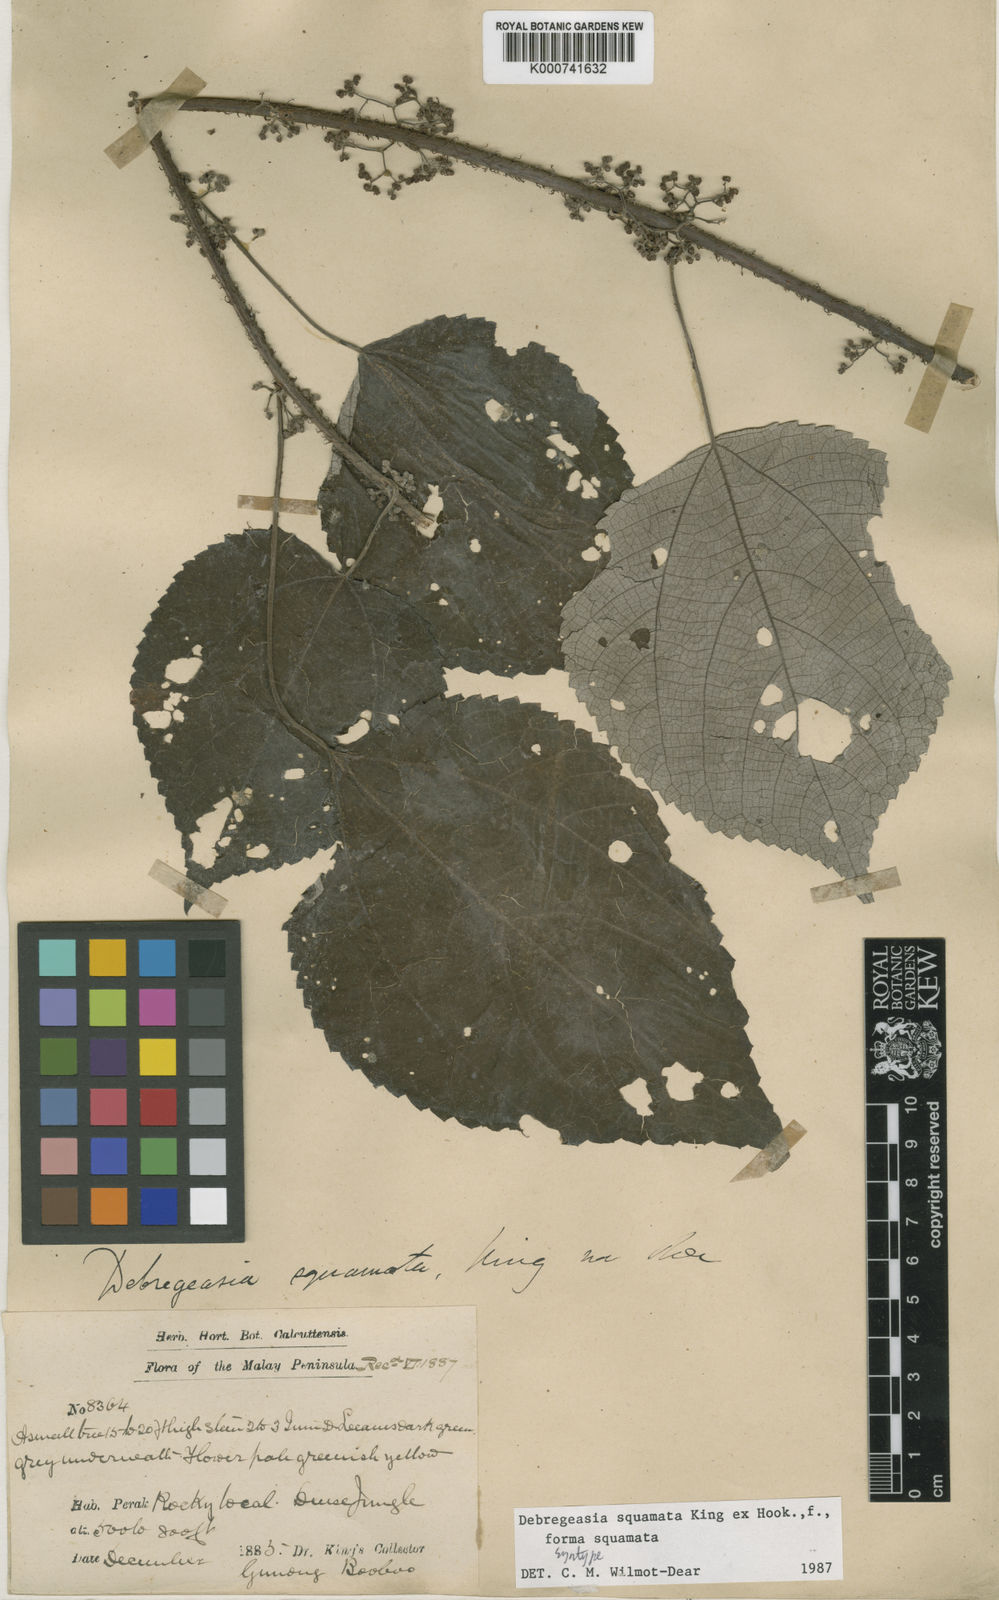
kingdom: Plantae
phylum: Tracheophyta
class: Magnoliopsida
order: Rosales
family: Urticaceae
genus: Debregeasia
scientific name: Debregeasia squamata
